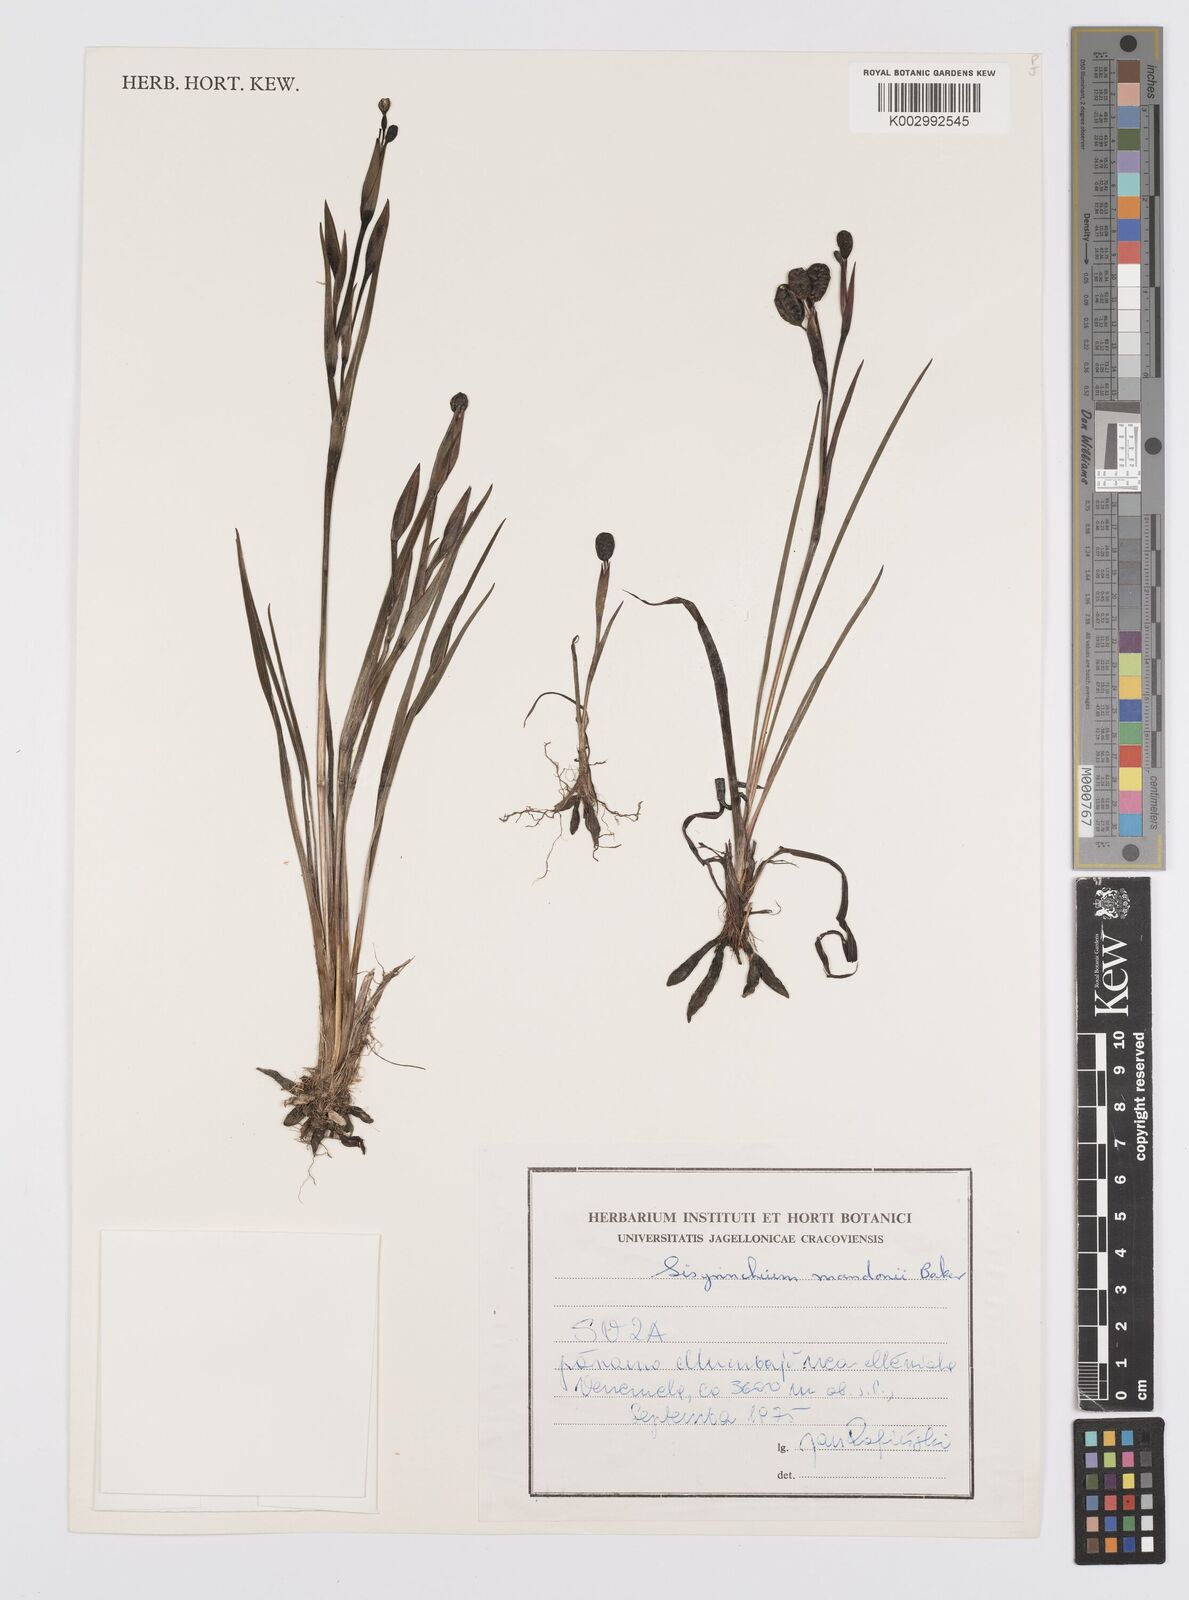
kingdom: Plantae
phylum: Tracheophyta
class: Liliopsida
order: Asparagales
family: Iridaceae
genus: Sisyrinchium
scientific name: Sisyrinchium mandonii
